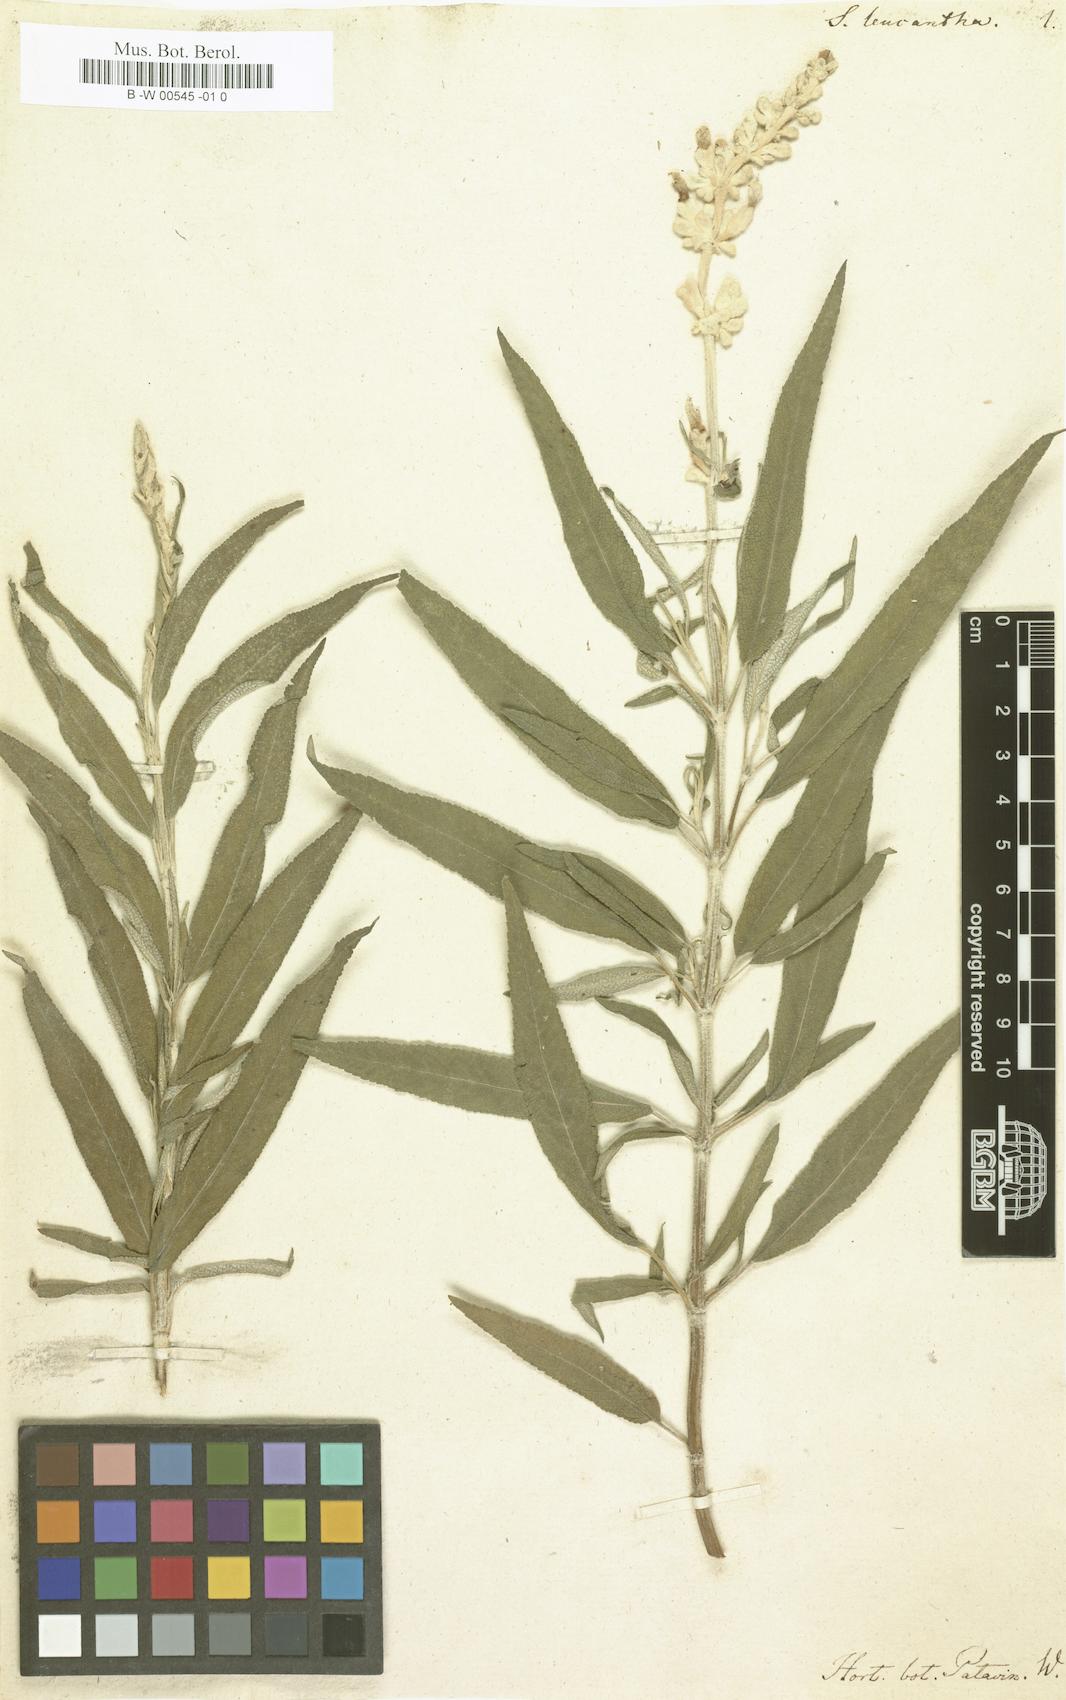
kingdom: Plantae
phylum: Tracheophyta
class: Magnoliopsida
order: Lamiales
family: Lamiaceae
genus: Salvia
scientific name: Salvia leucantha
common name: Mexican bush sage
